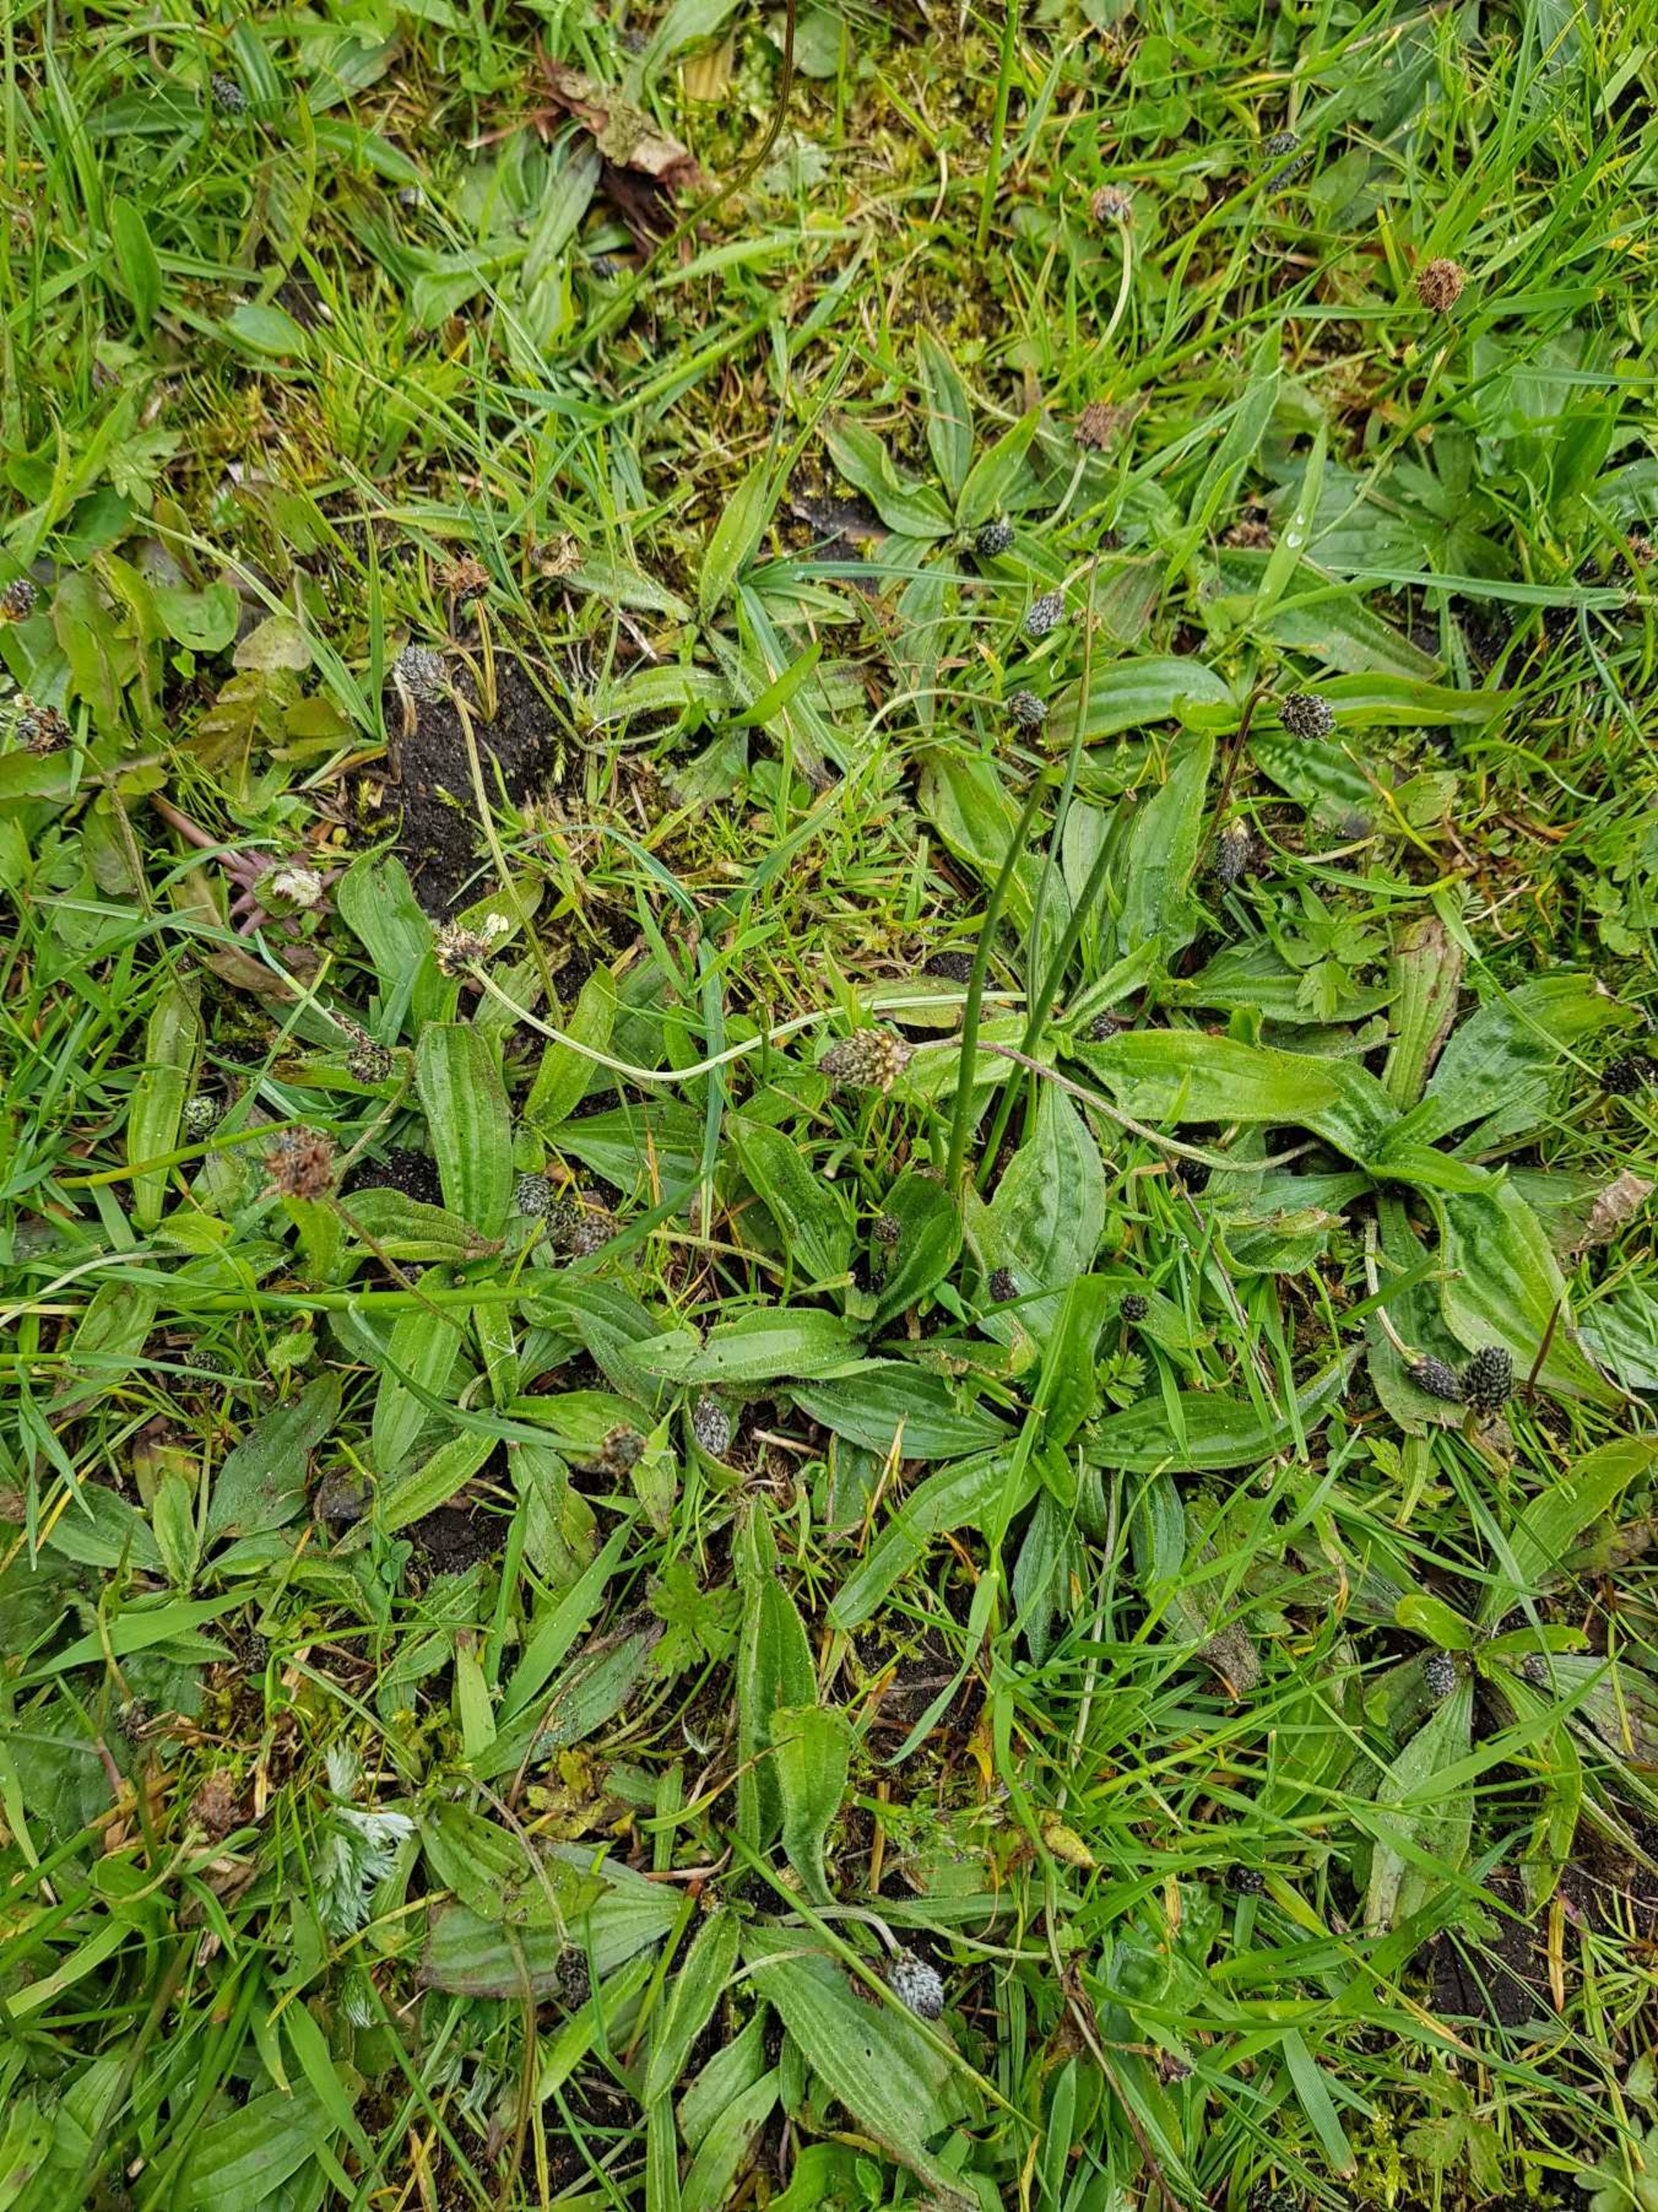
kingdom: Plantae
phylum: Tracheophyta
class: Magnoliopsida
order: Lamiales
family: Plantaginaceae
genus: Plantago
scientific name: Plantago lanceolata
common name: Lancet-vejbred
